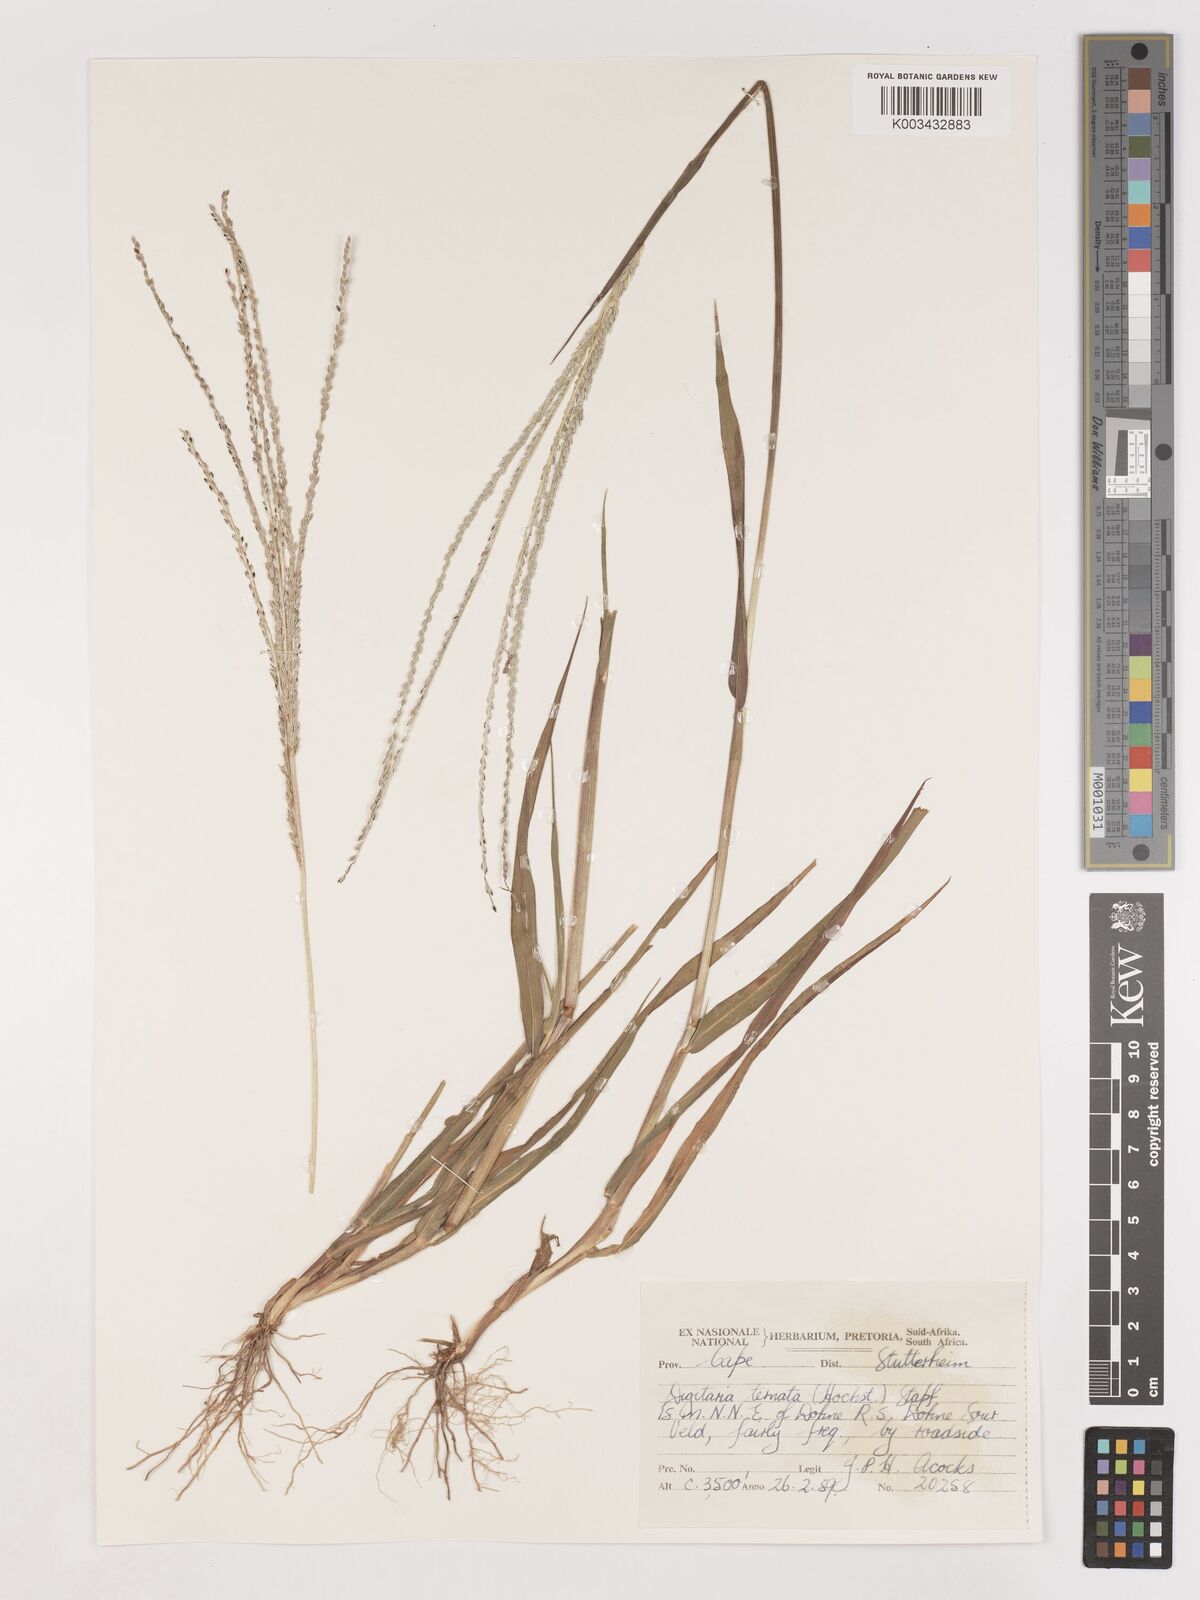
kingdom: Plantae
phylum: Tracheophyta
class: Liliopsida
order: Poales
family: Poaceae
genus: Digitaria
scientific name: Digitaria ternata
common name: Blackseed crabgrass
